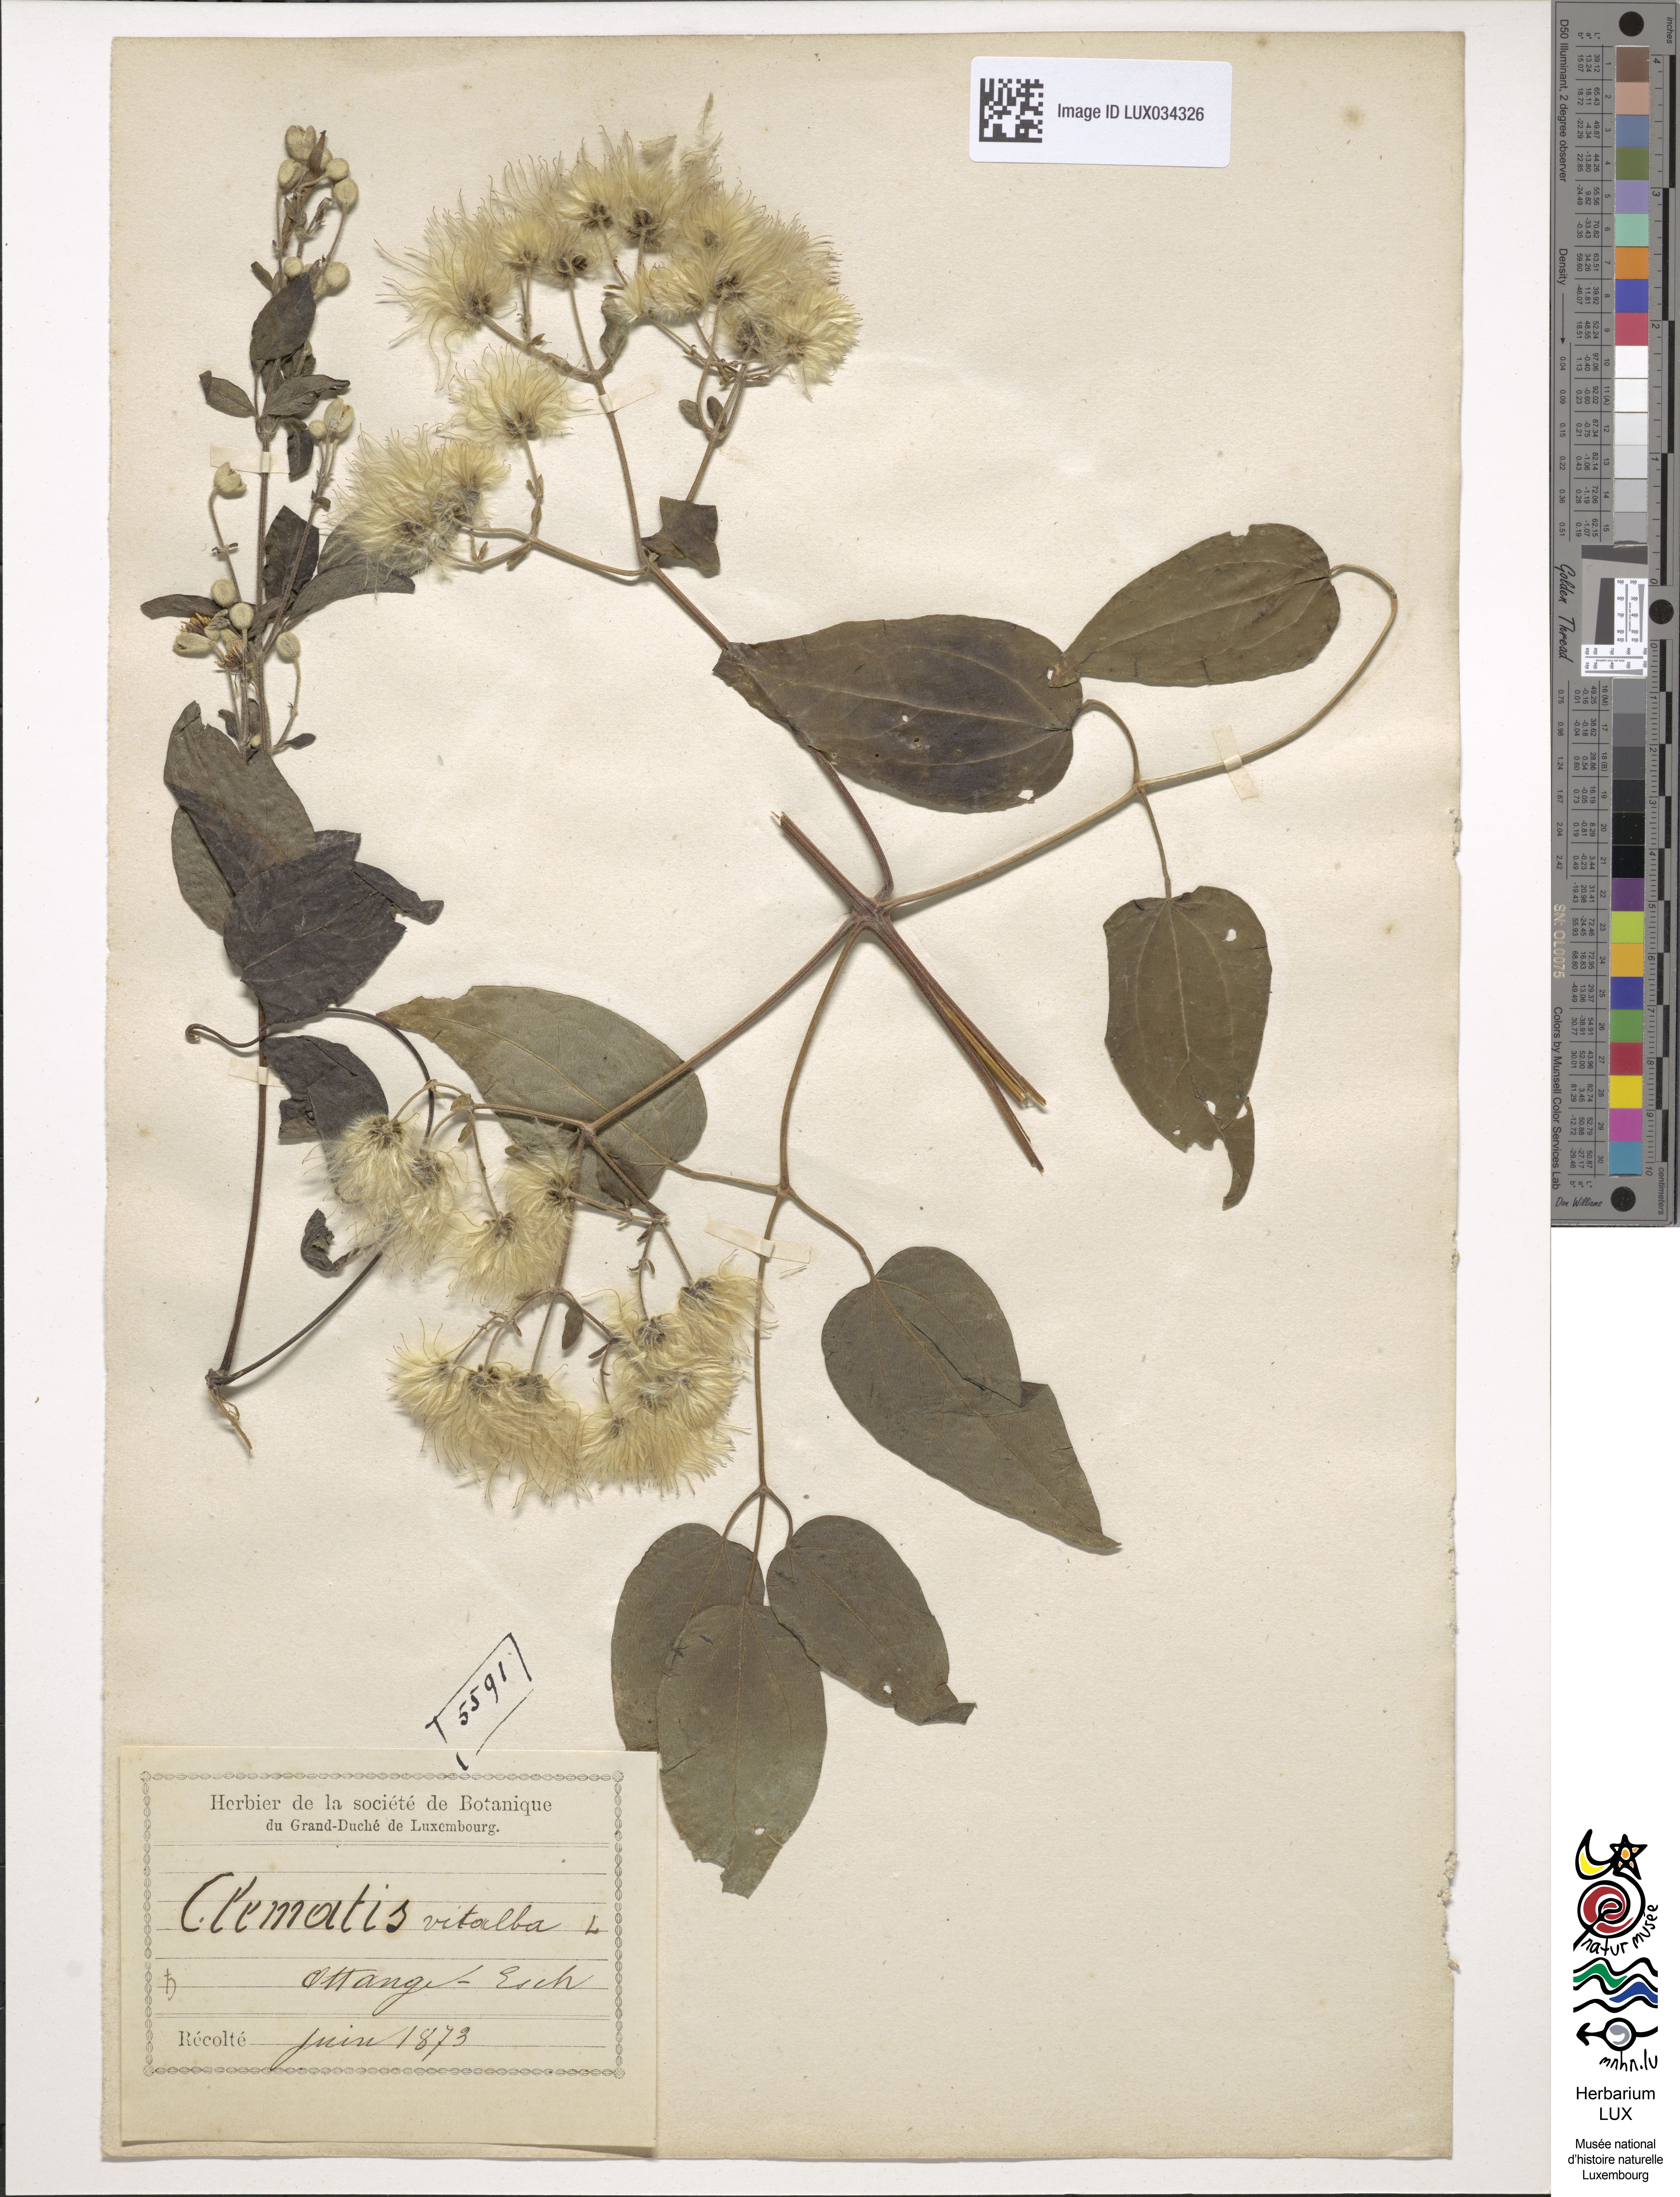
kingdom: Plantae
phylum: Tracheophyta
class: Magnoliopsida
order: Ranunculales
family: Ranunculaceae
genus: Clematis
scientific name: Clematis vitalba
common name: Evergreen clematis
